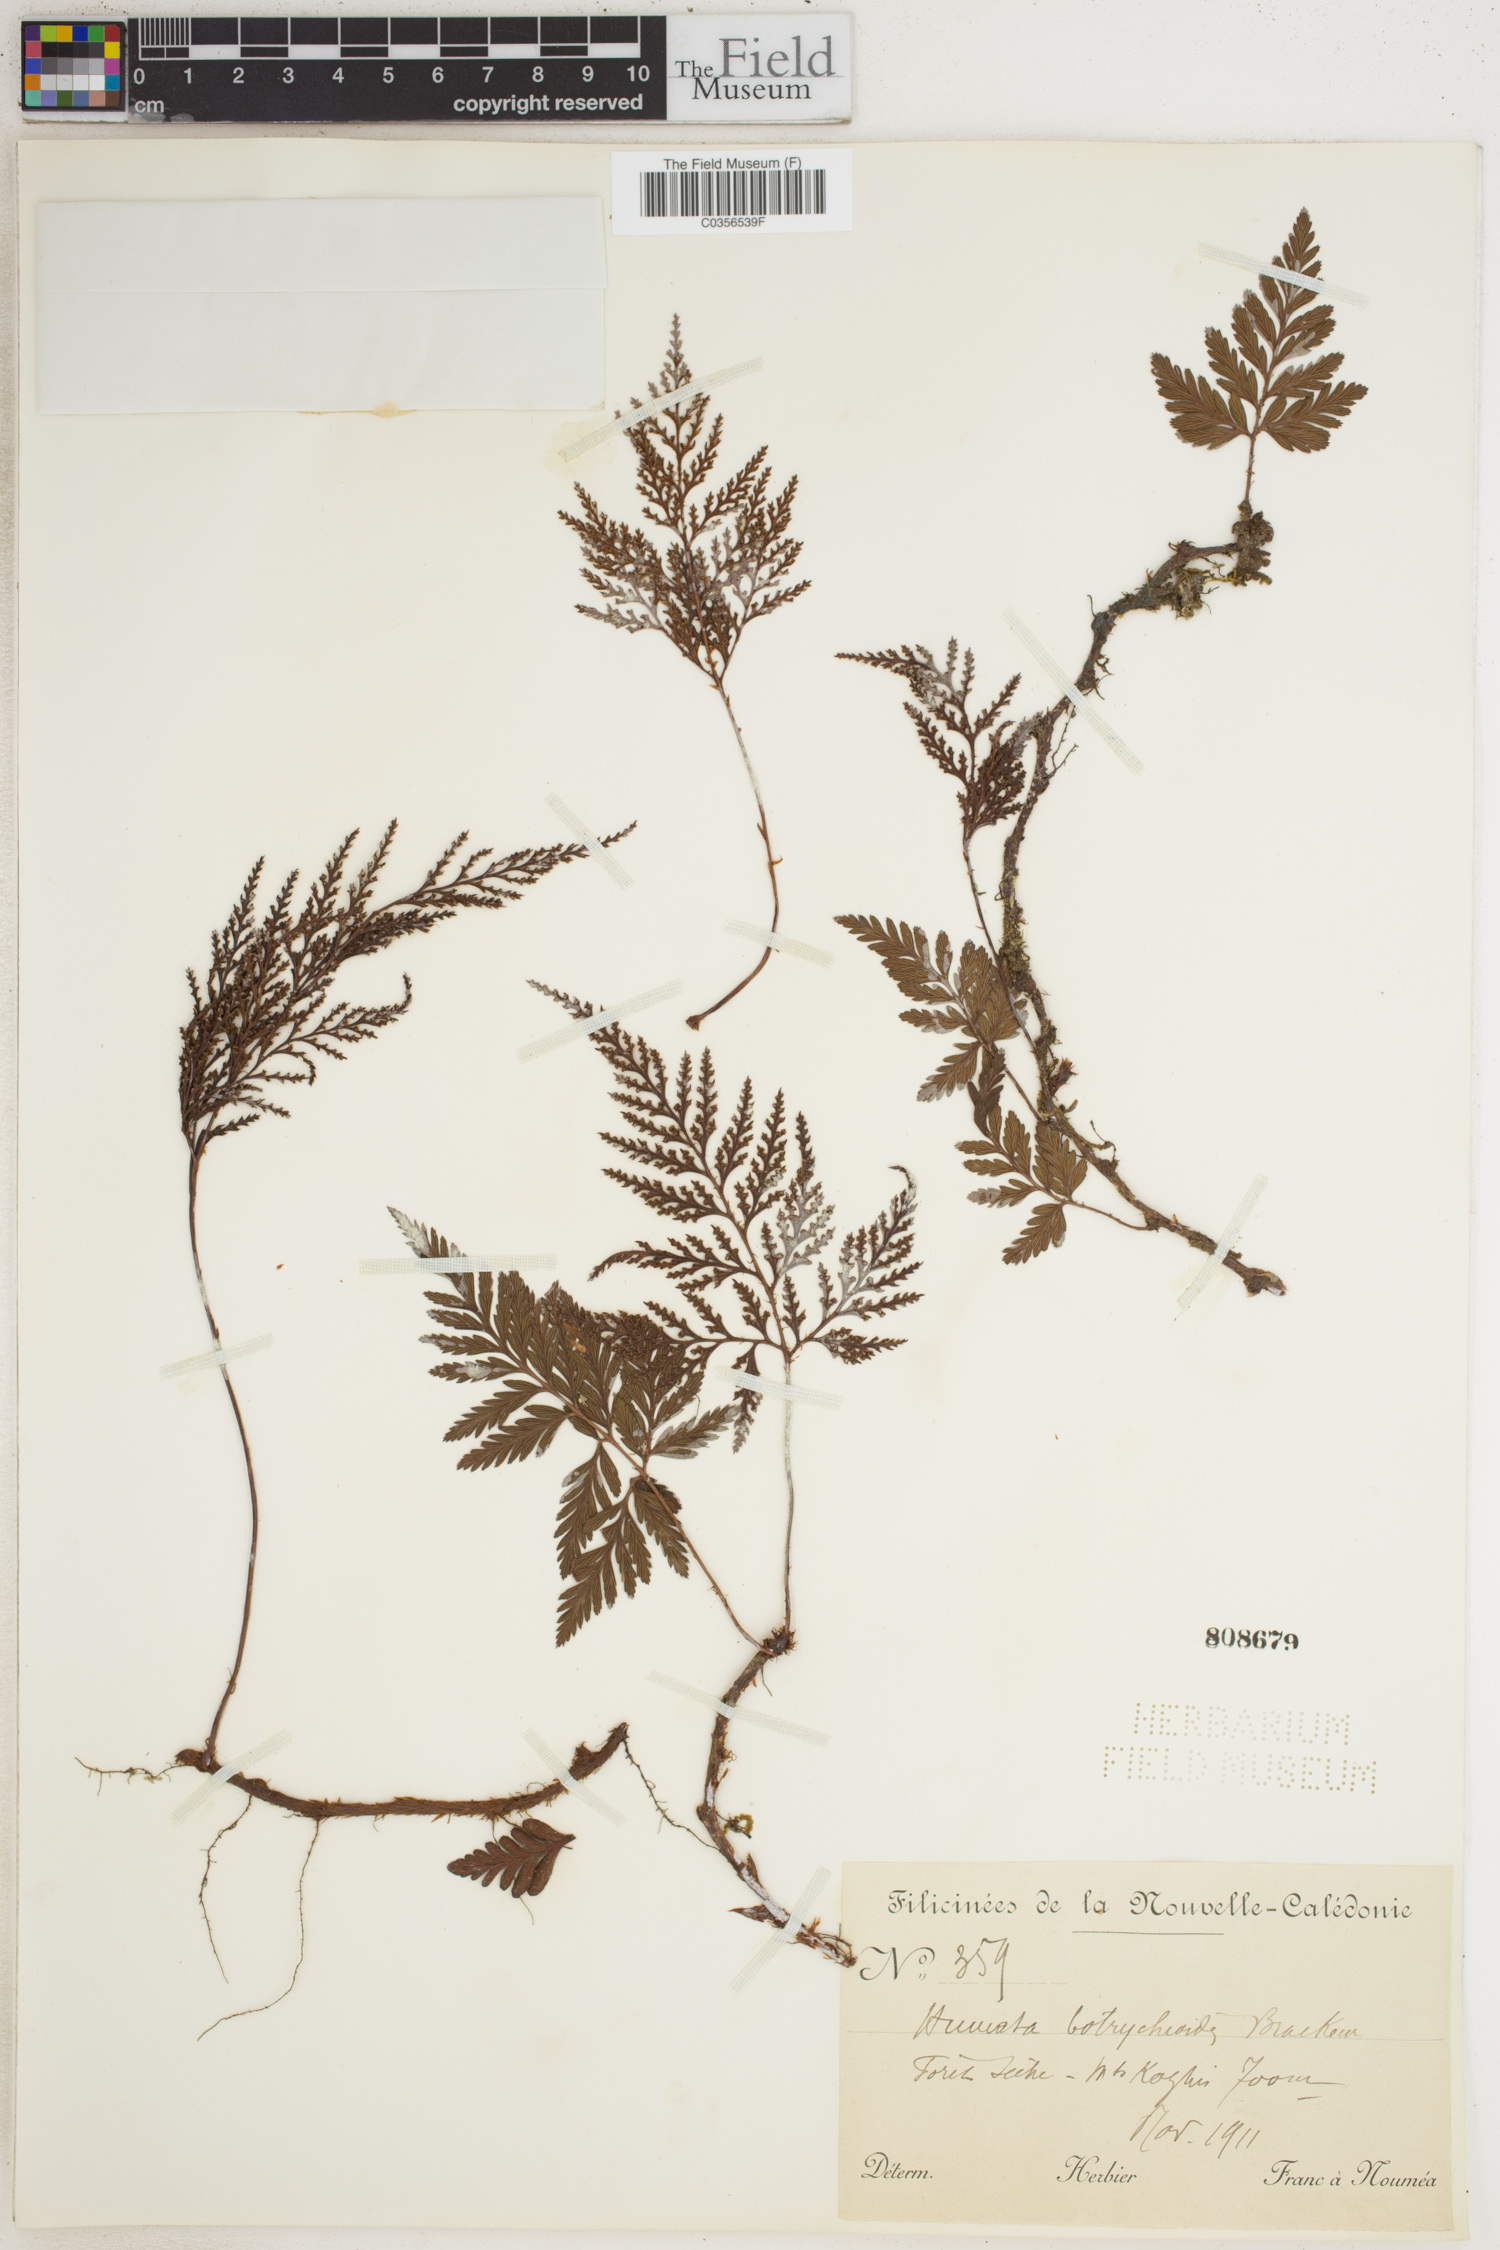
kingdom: Plantae
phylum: Tracheophyta
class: Polypodiopsida
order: Polypodiales
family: Davalliaceae
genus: Davallia
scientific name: Davallia repens
